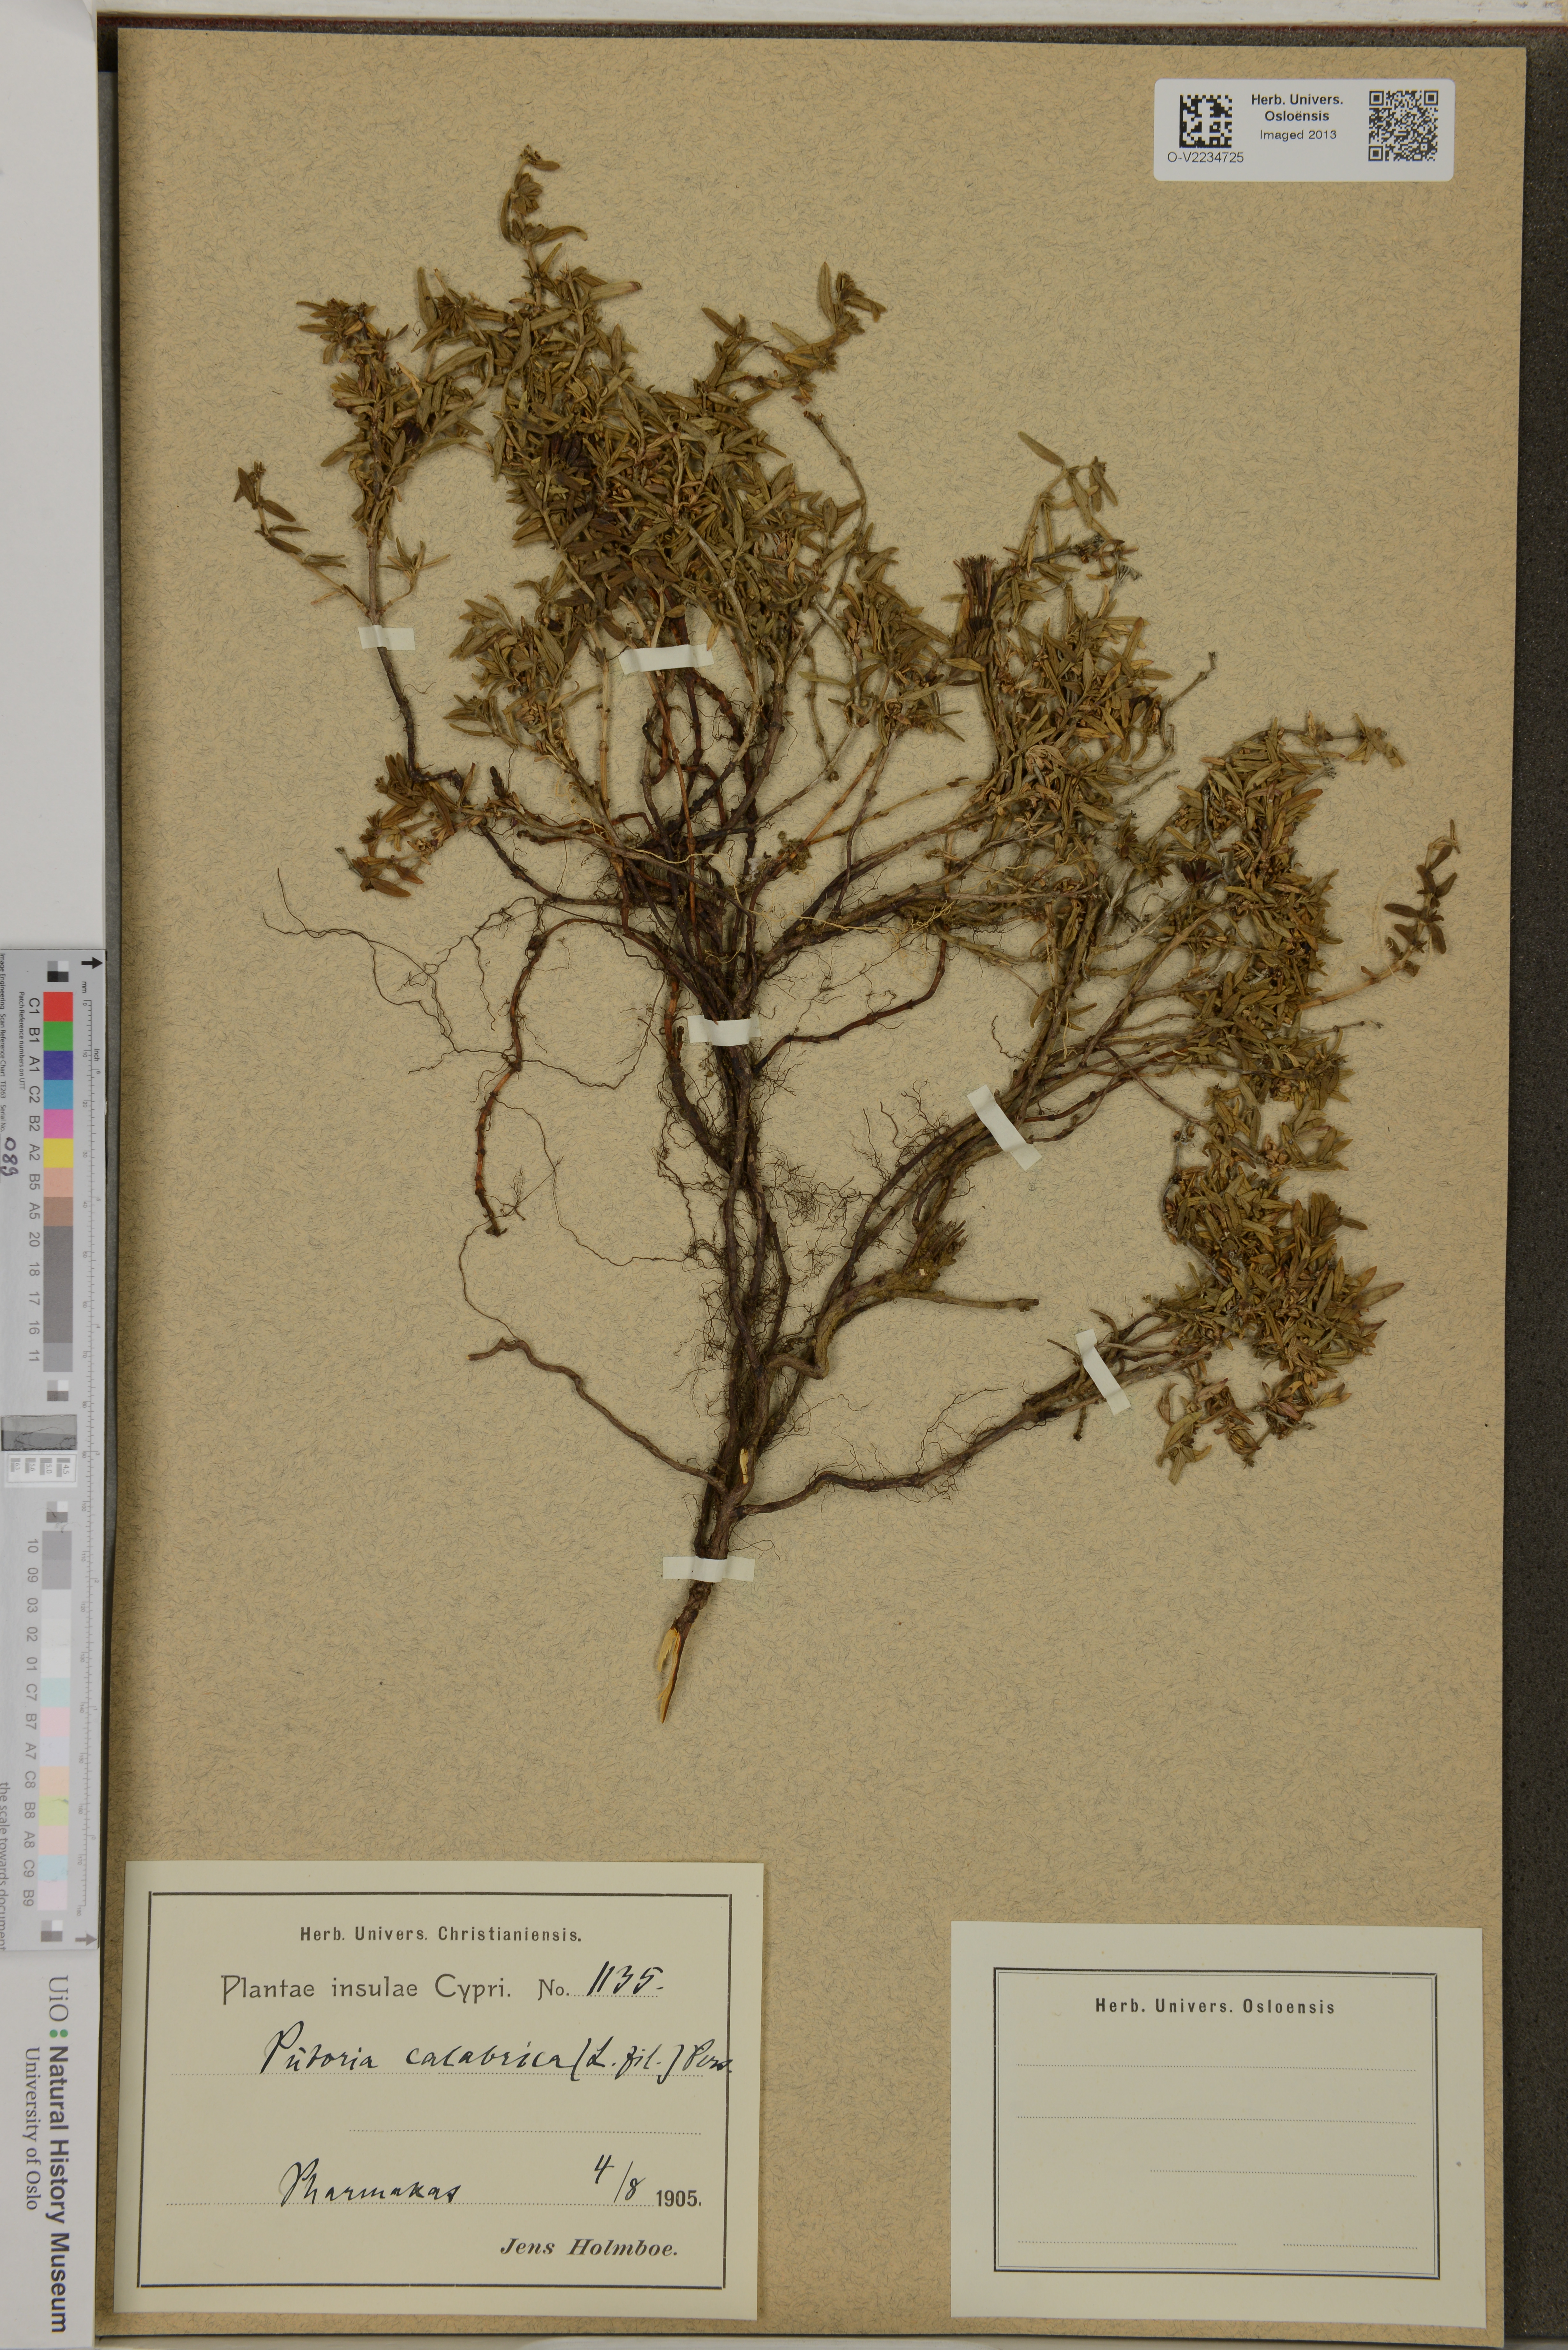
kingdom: Plantae
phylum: Tracheophyta
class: Magnoliopsida
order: Gentianales
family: Rubiaceae
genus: Plocama
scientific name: Plocama calabrica
